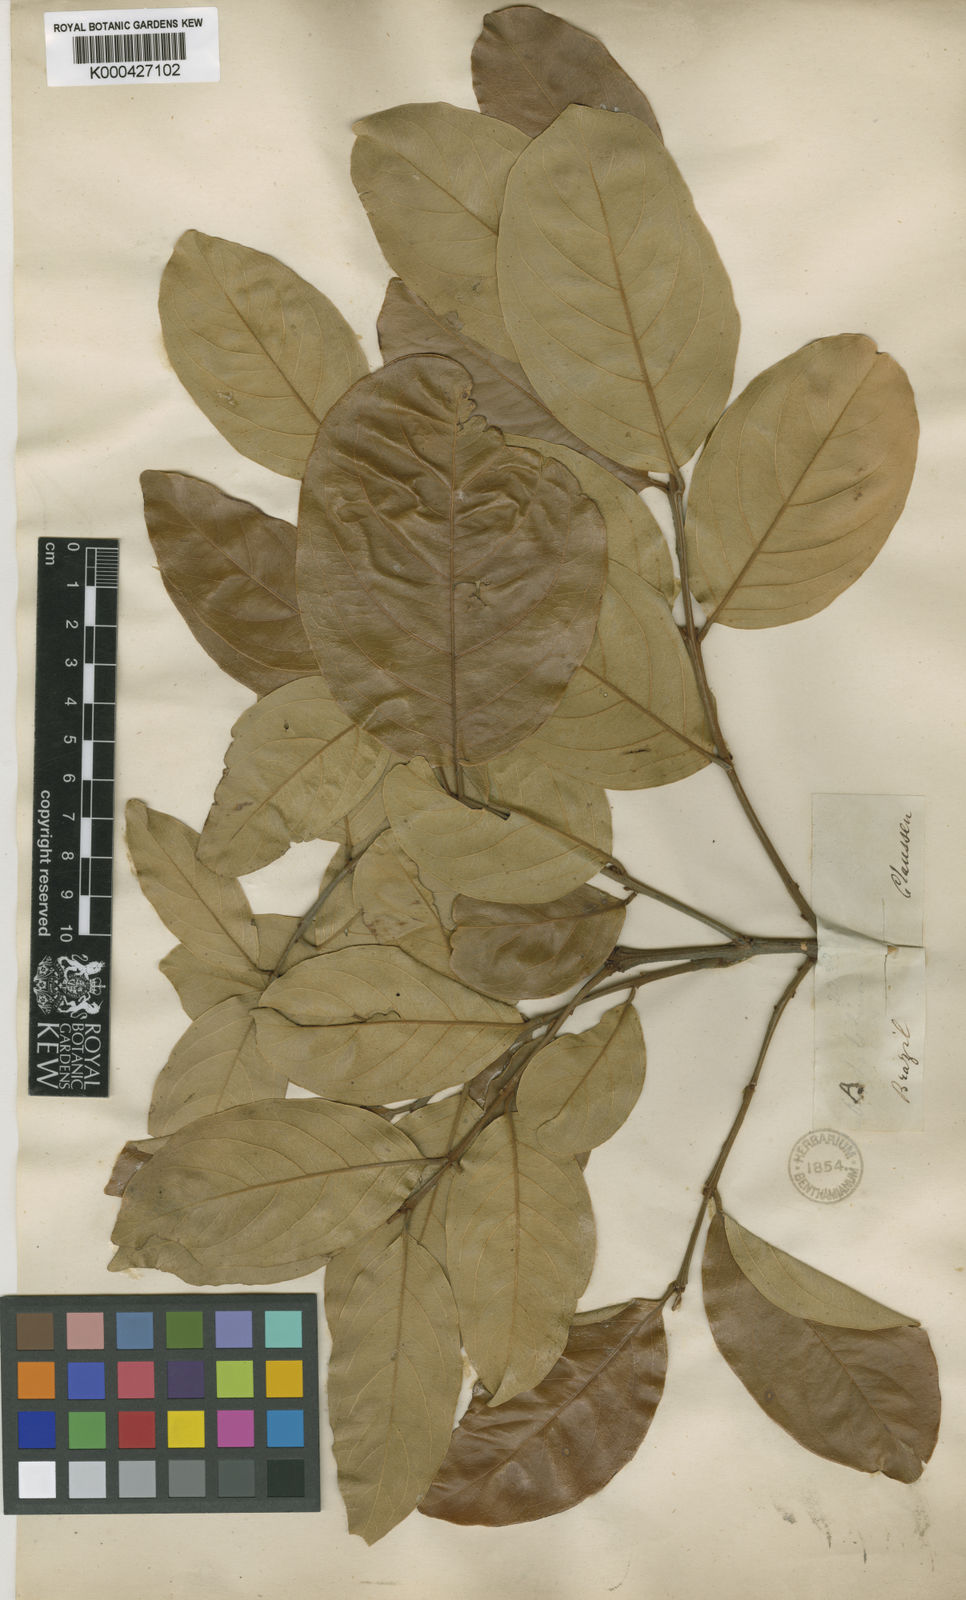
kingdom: Plantae
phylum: Tracheophyta
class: Magnoliopsida
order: Malpighiales
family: Malpighiaceae
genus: Heteropterys
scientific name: Heteropterys xanthophylla
